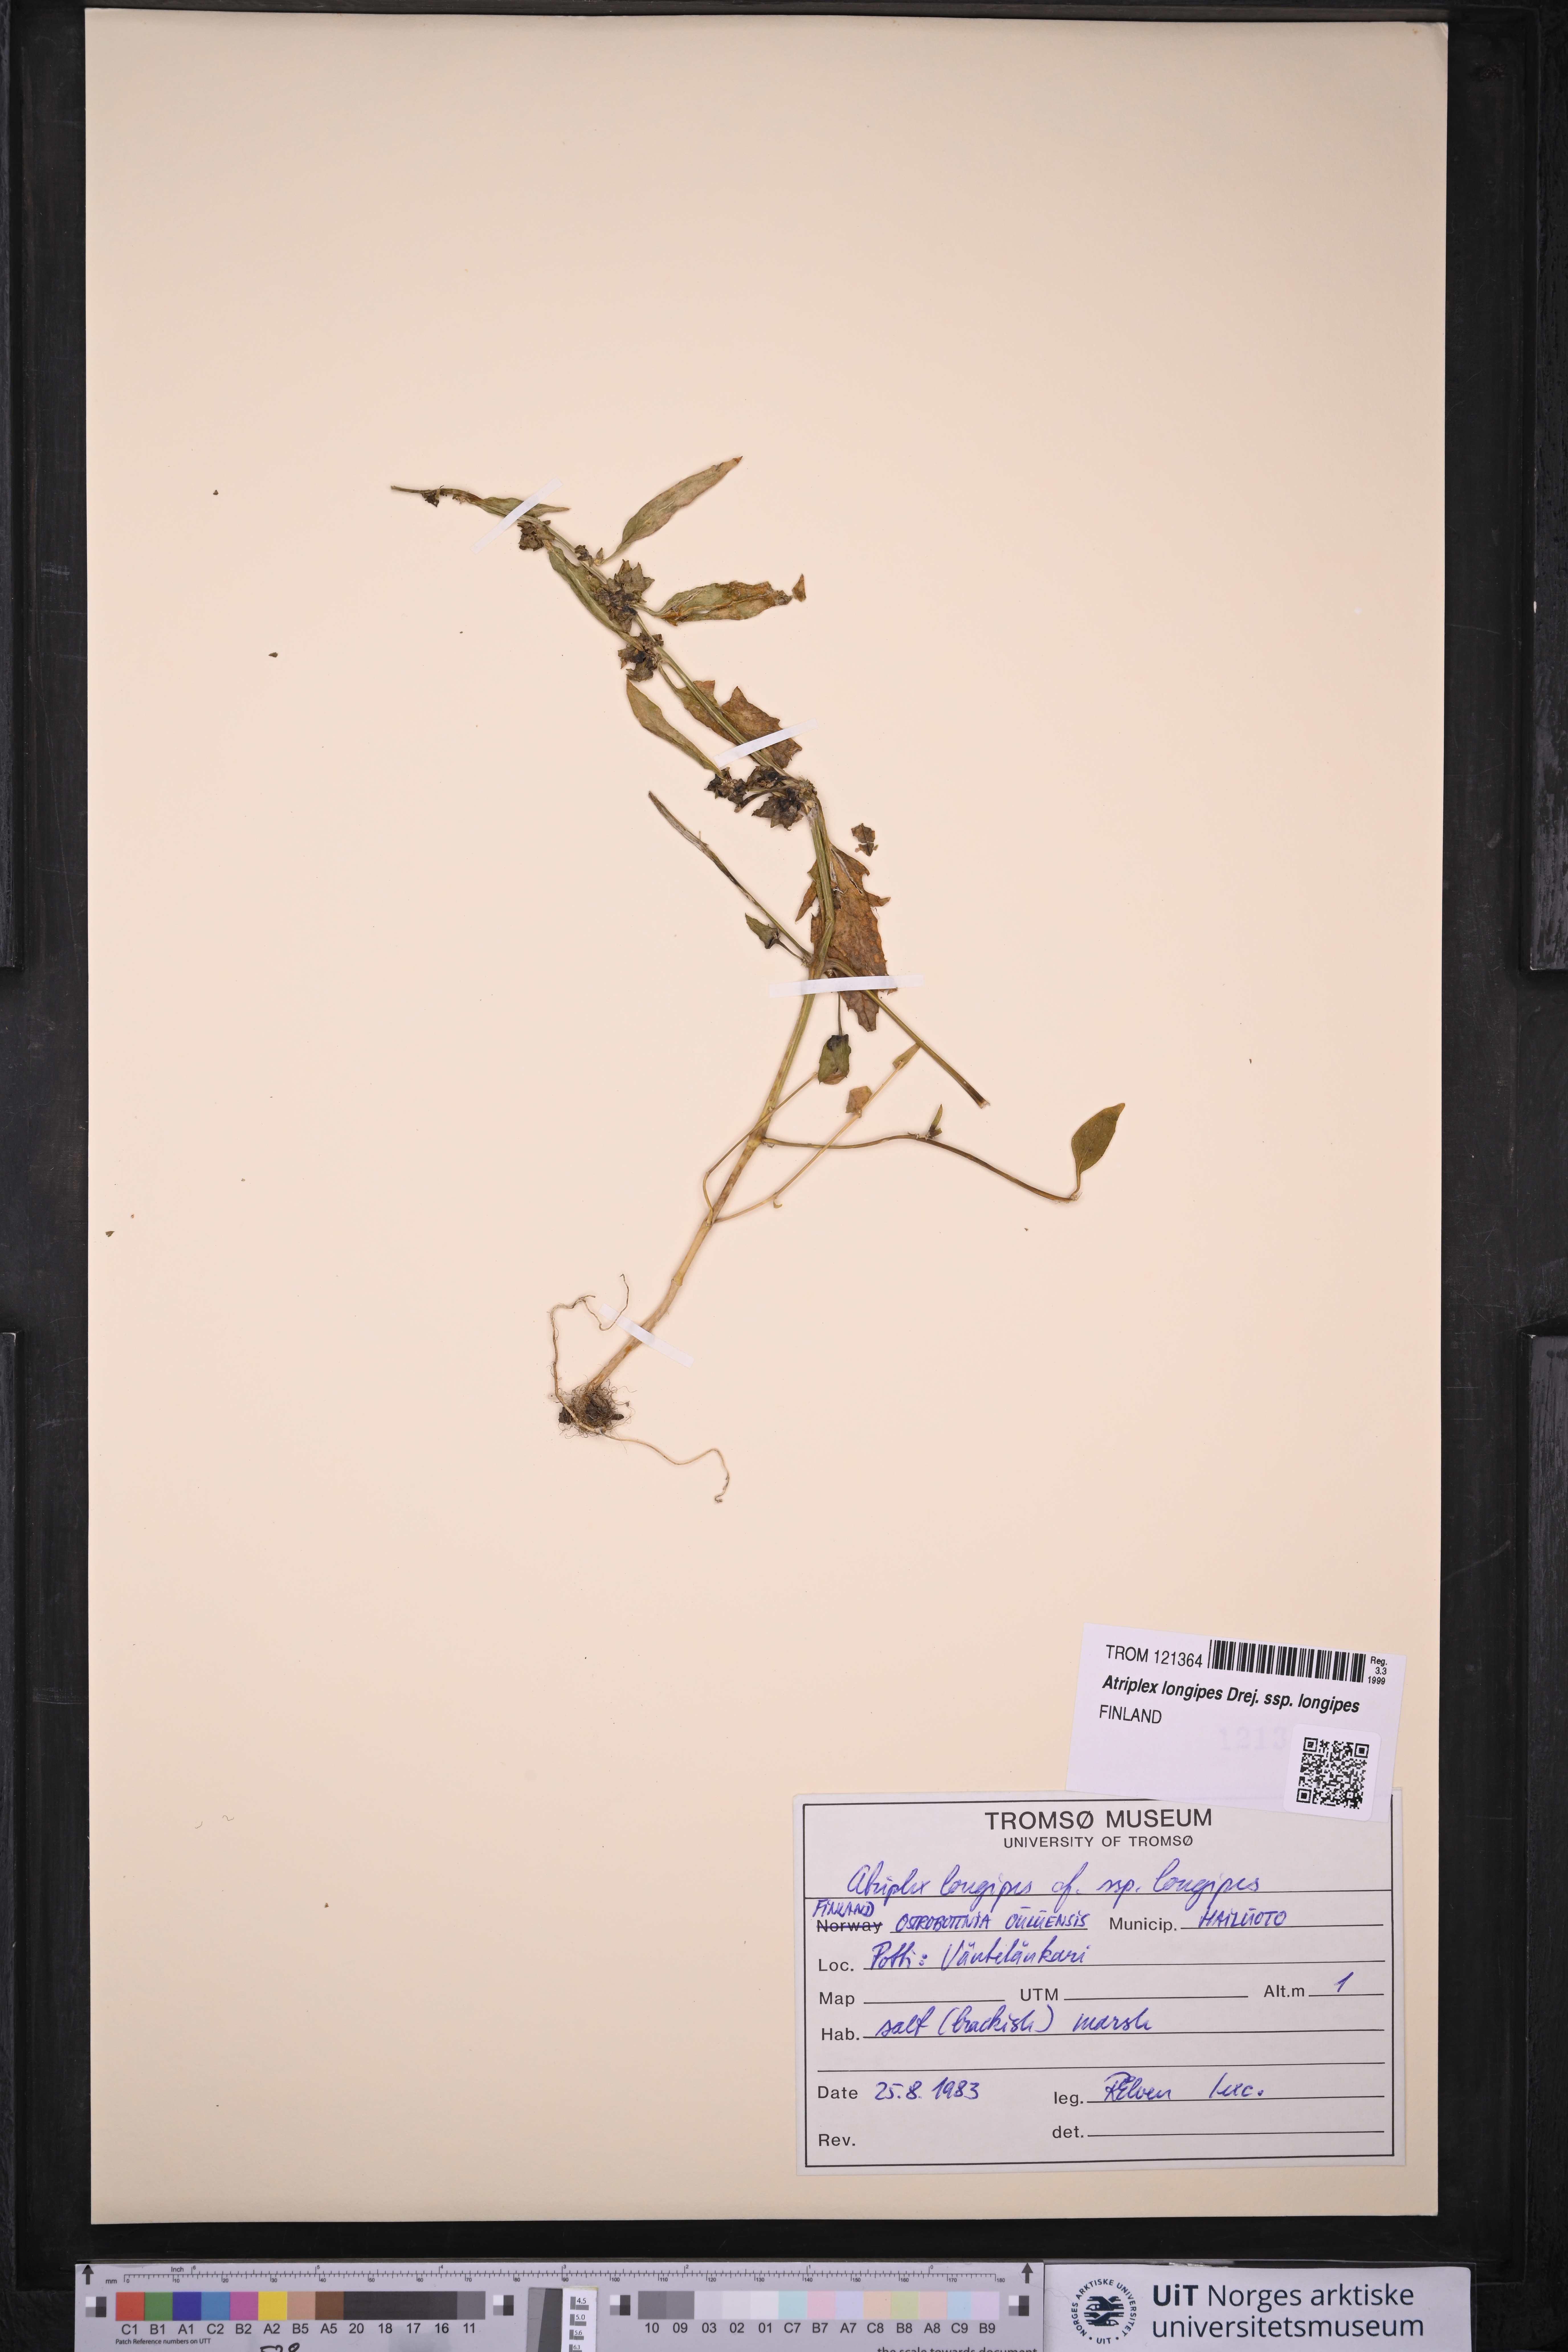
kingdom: Plantae
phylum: Tracheophyta
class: Magnoliopsida
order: Caryophyllales
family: Amaranthaceae
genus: Atriplex
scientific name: Atriplex longipes
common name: Long-stalked orache
